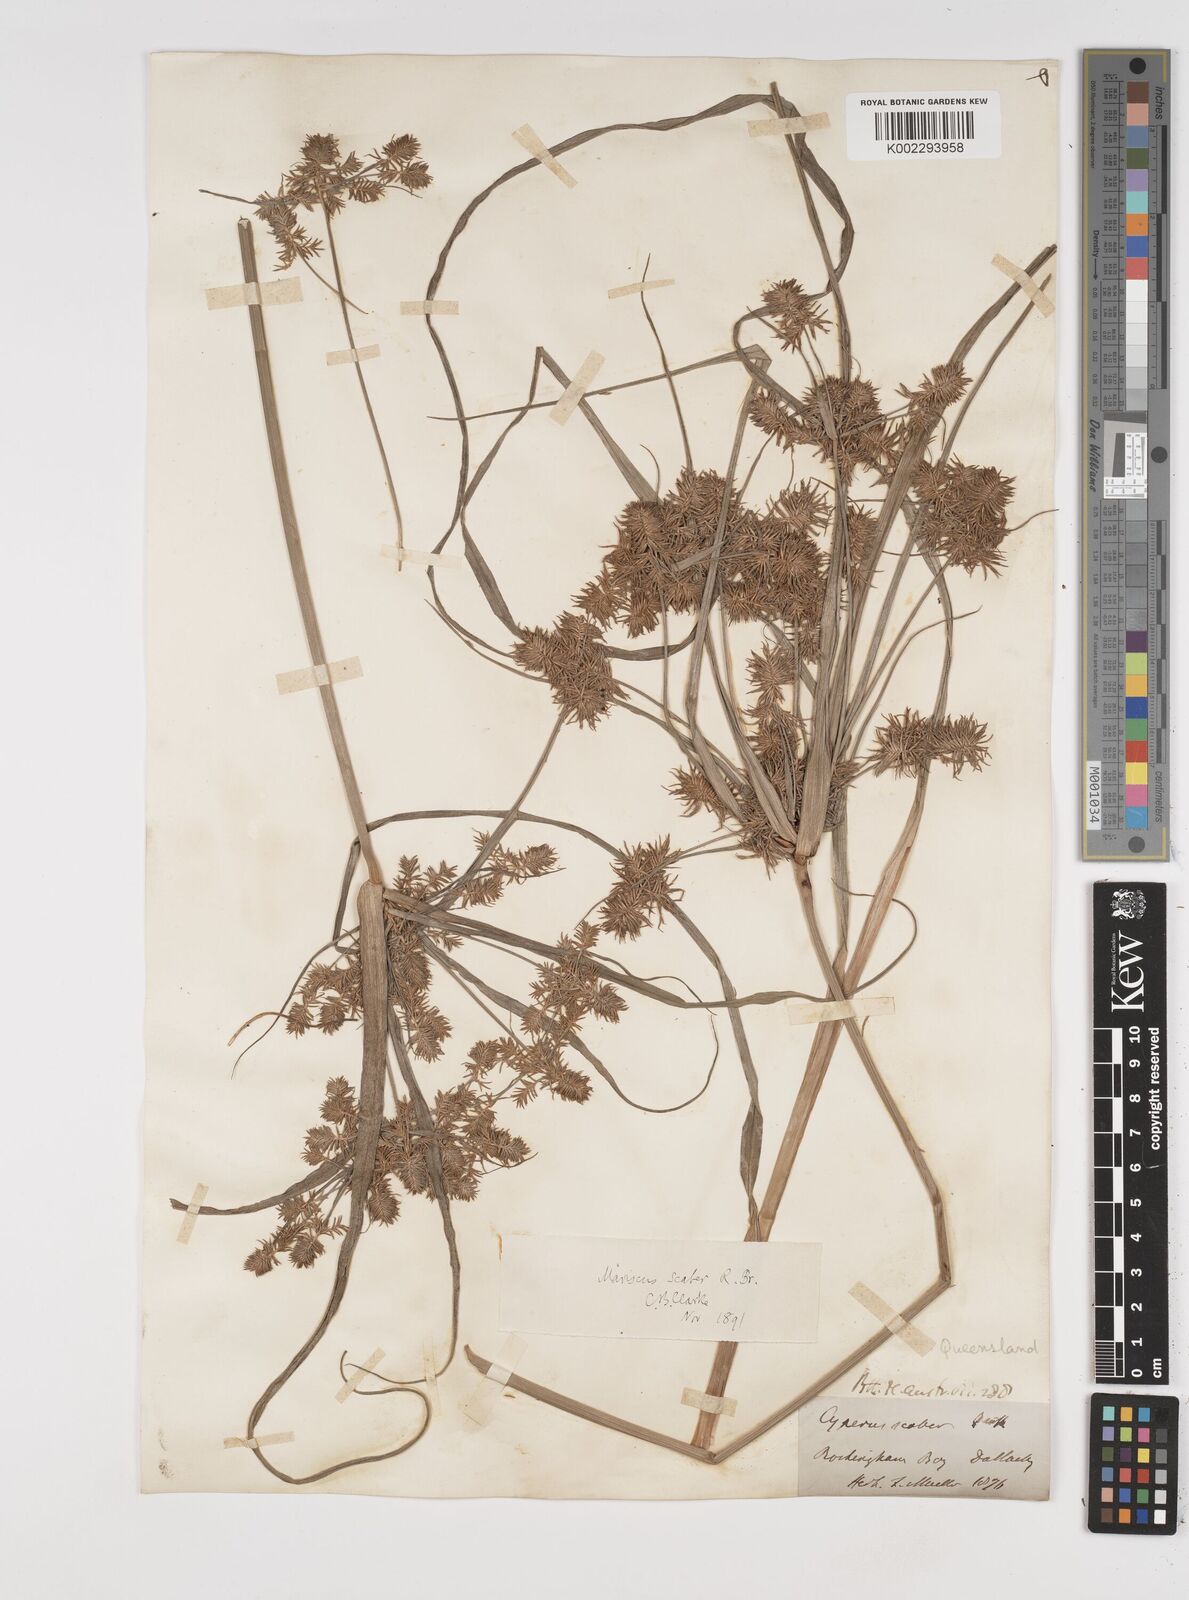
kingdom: Plantae
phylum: Tracheophyta
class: Liliopsida
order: Poales
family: Cyperaceae
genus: Cyperus
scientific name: Cyperus scaber
